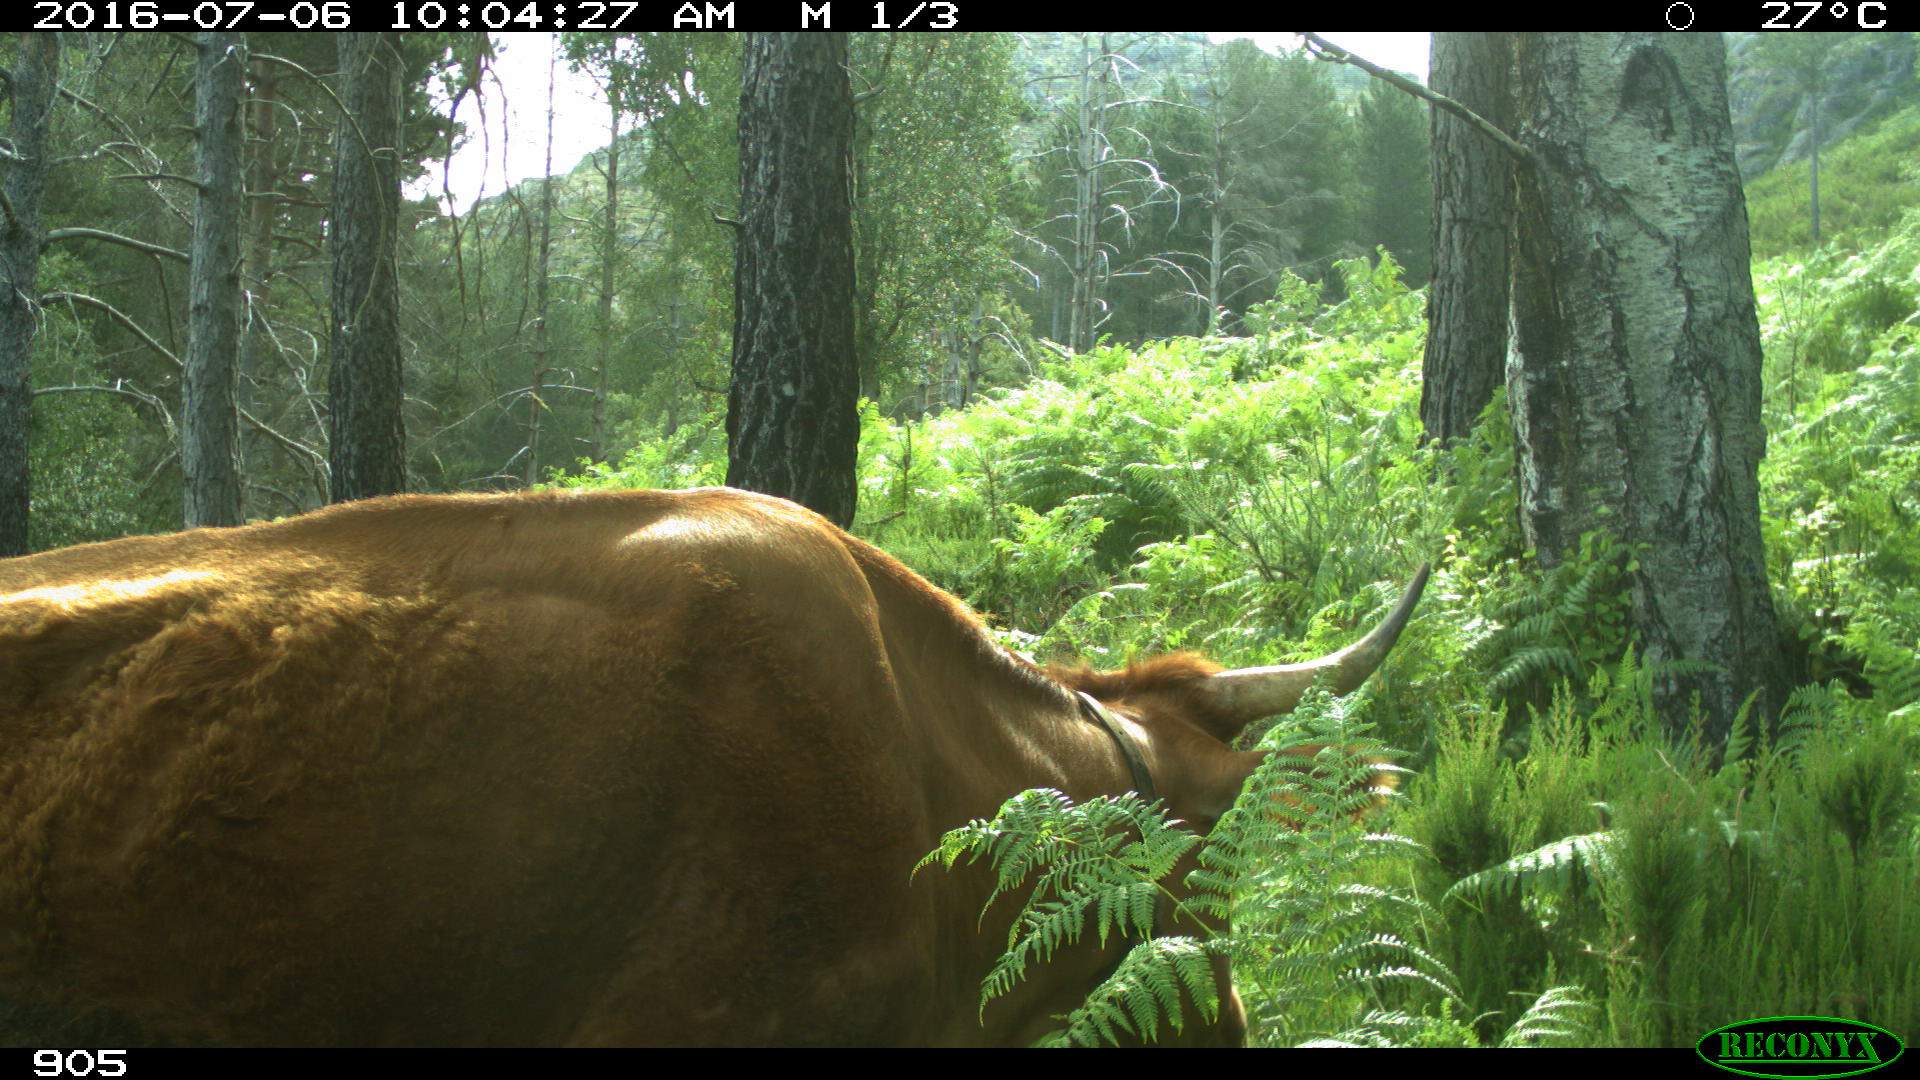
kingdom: Animalia
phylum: Chordata
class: Mammalia
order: Artiodactyla
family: Bovidae
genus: Bos
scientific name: Bos taurus
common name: Domesticated cattle
